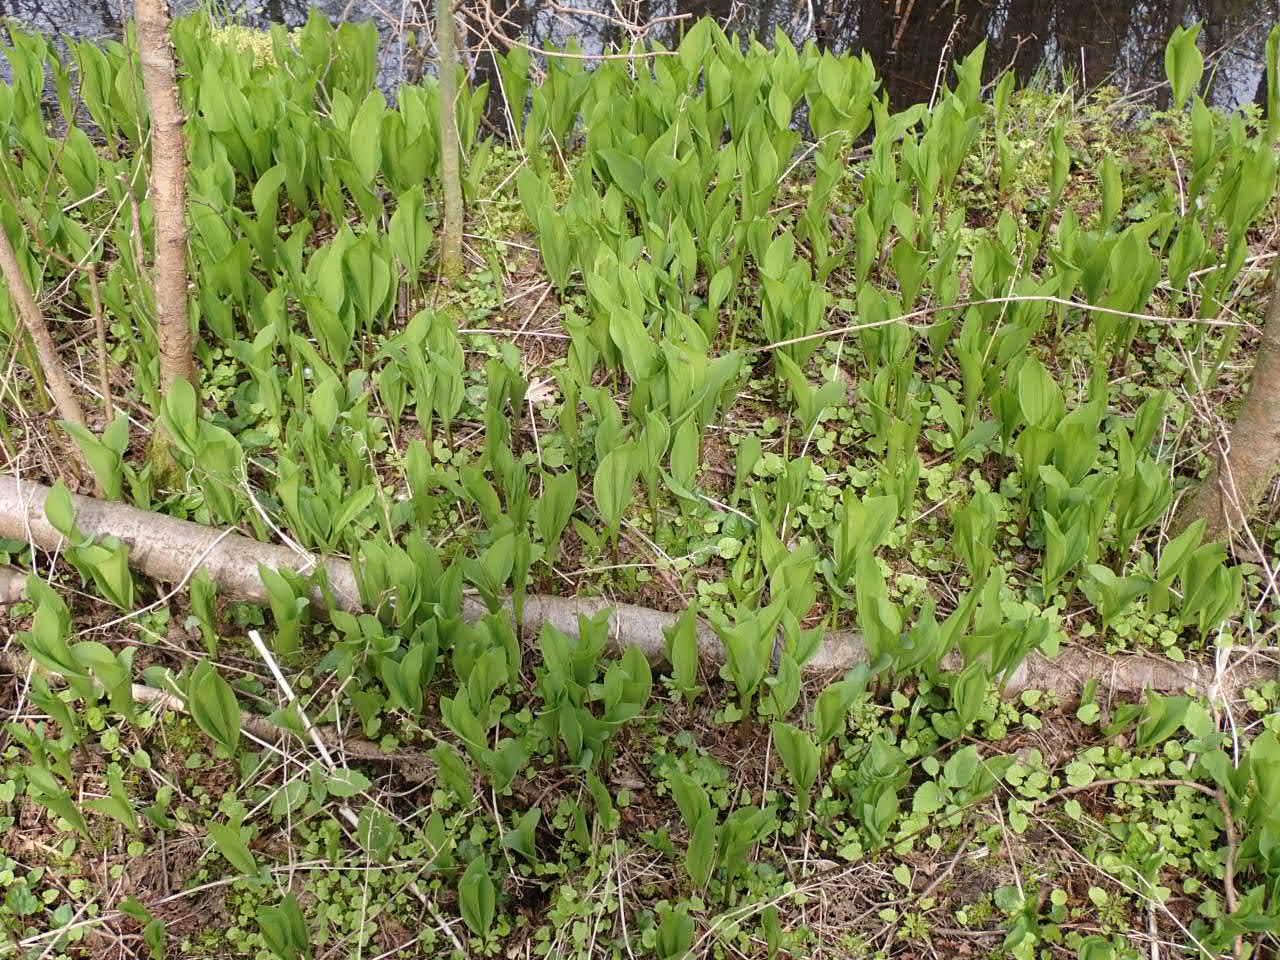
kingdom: Plantae
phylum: Tracheophyta
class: Liliopsida
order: Asparagales
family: Asparagaceae
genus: Convallaria
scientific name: Convallaria majalis
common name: Liljekonval
